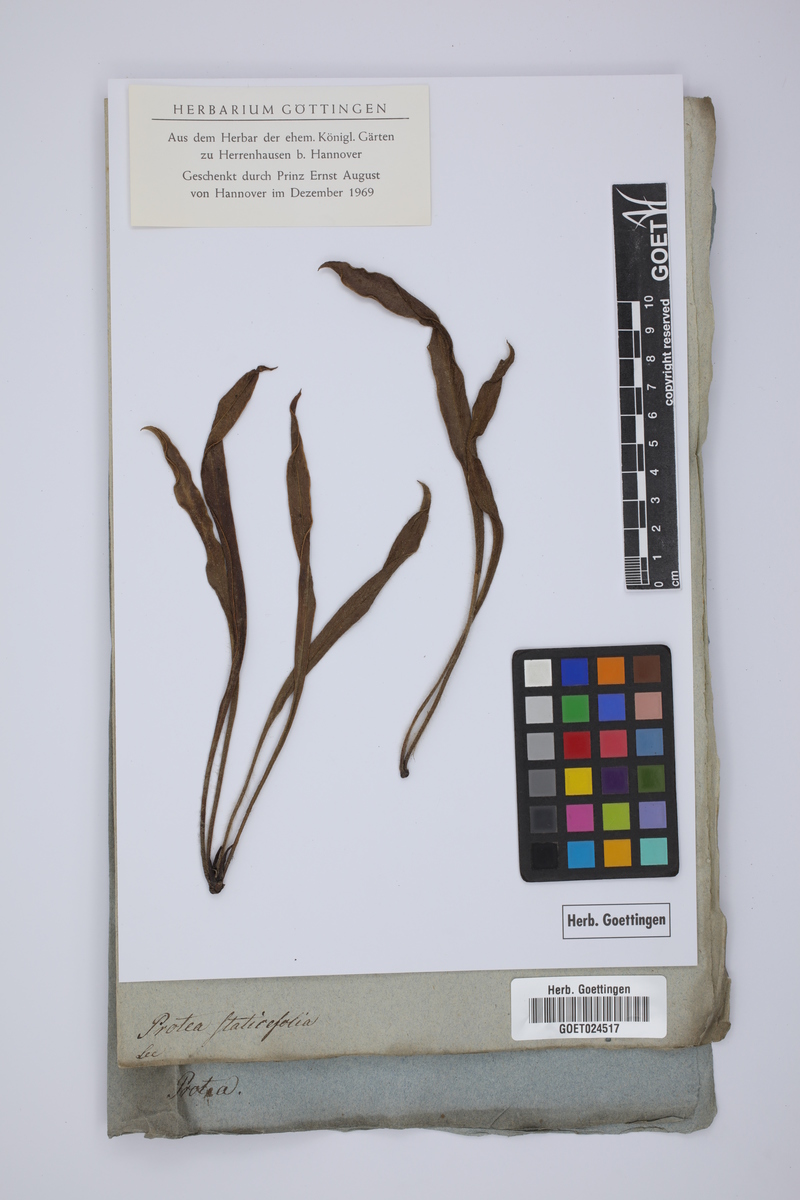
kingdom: Plantae
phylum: Tracheophyta
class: Magnoliopsida
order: Proteales
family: Proteaceae
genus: Protea
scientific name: Protea staticifolia
